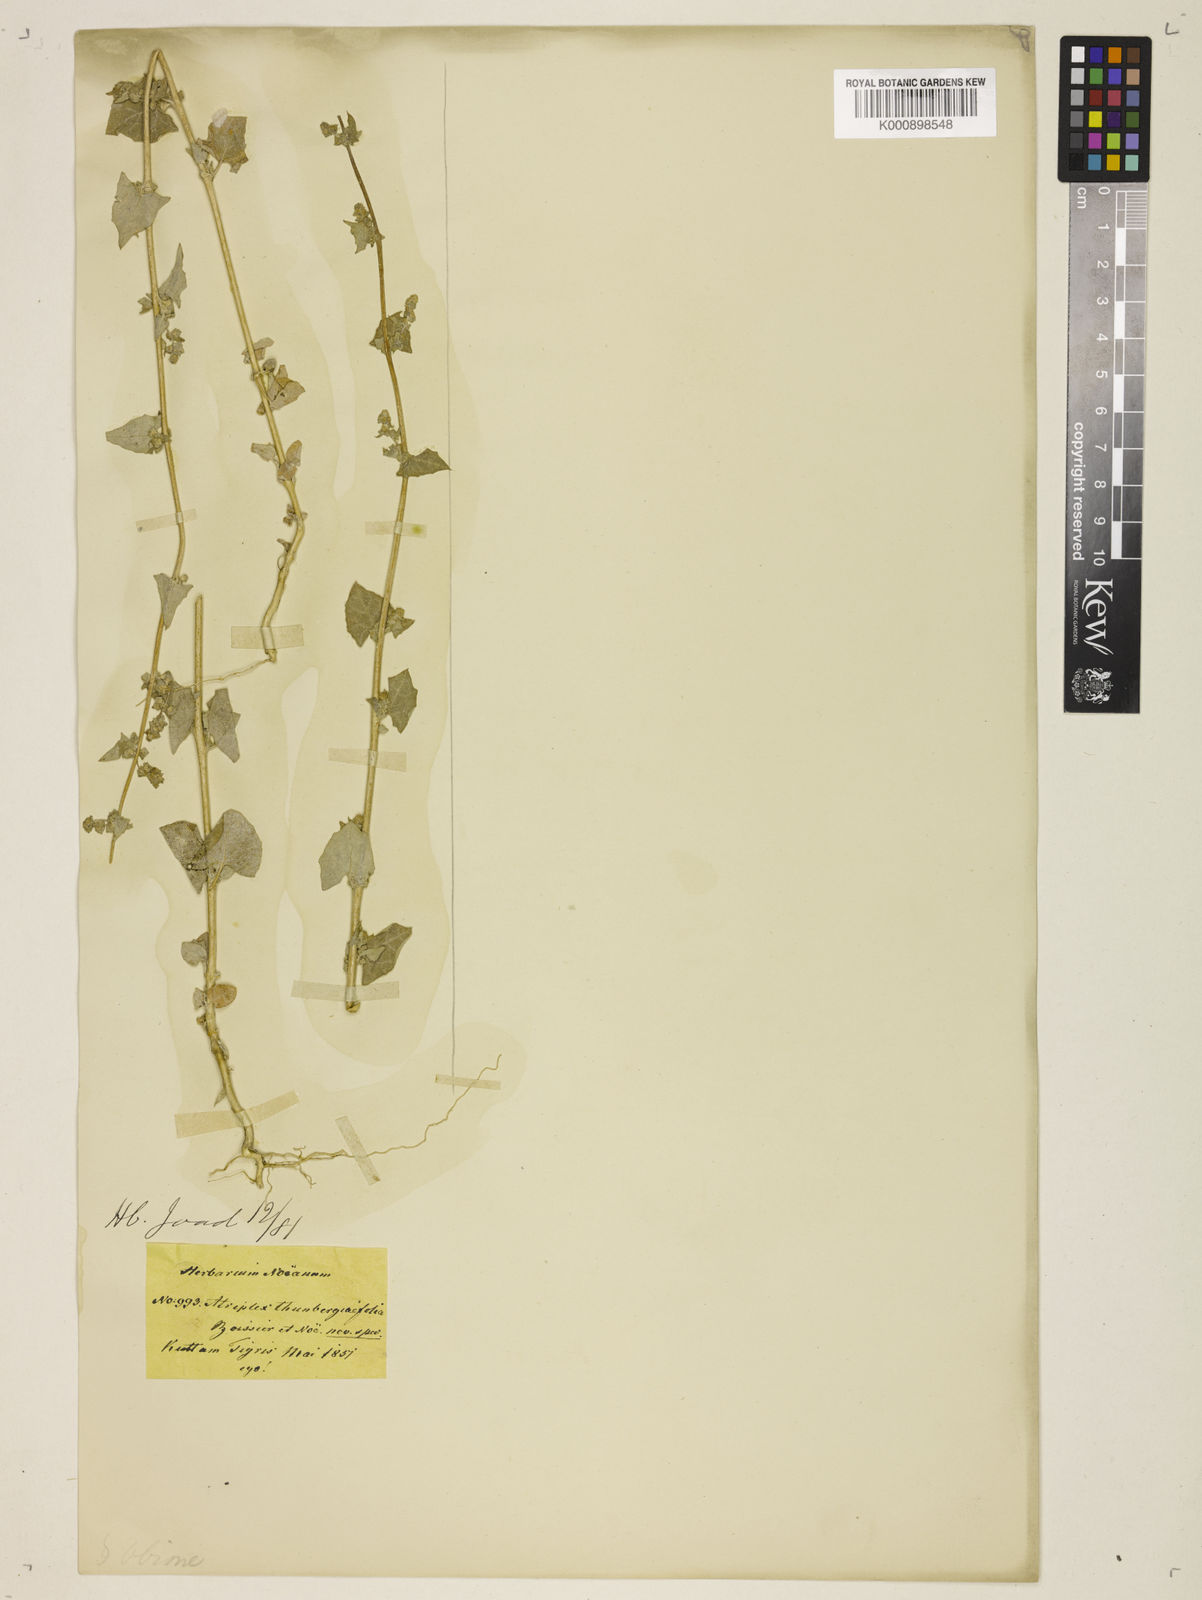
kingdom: Plantae
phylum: Tracheophyta
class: Magnoliopsida
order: Caryophyllales
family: Amaranthaceae
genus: Atriplex
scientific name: Atriplex
